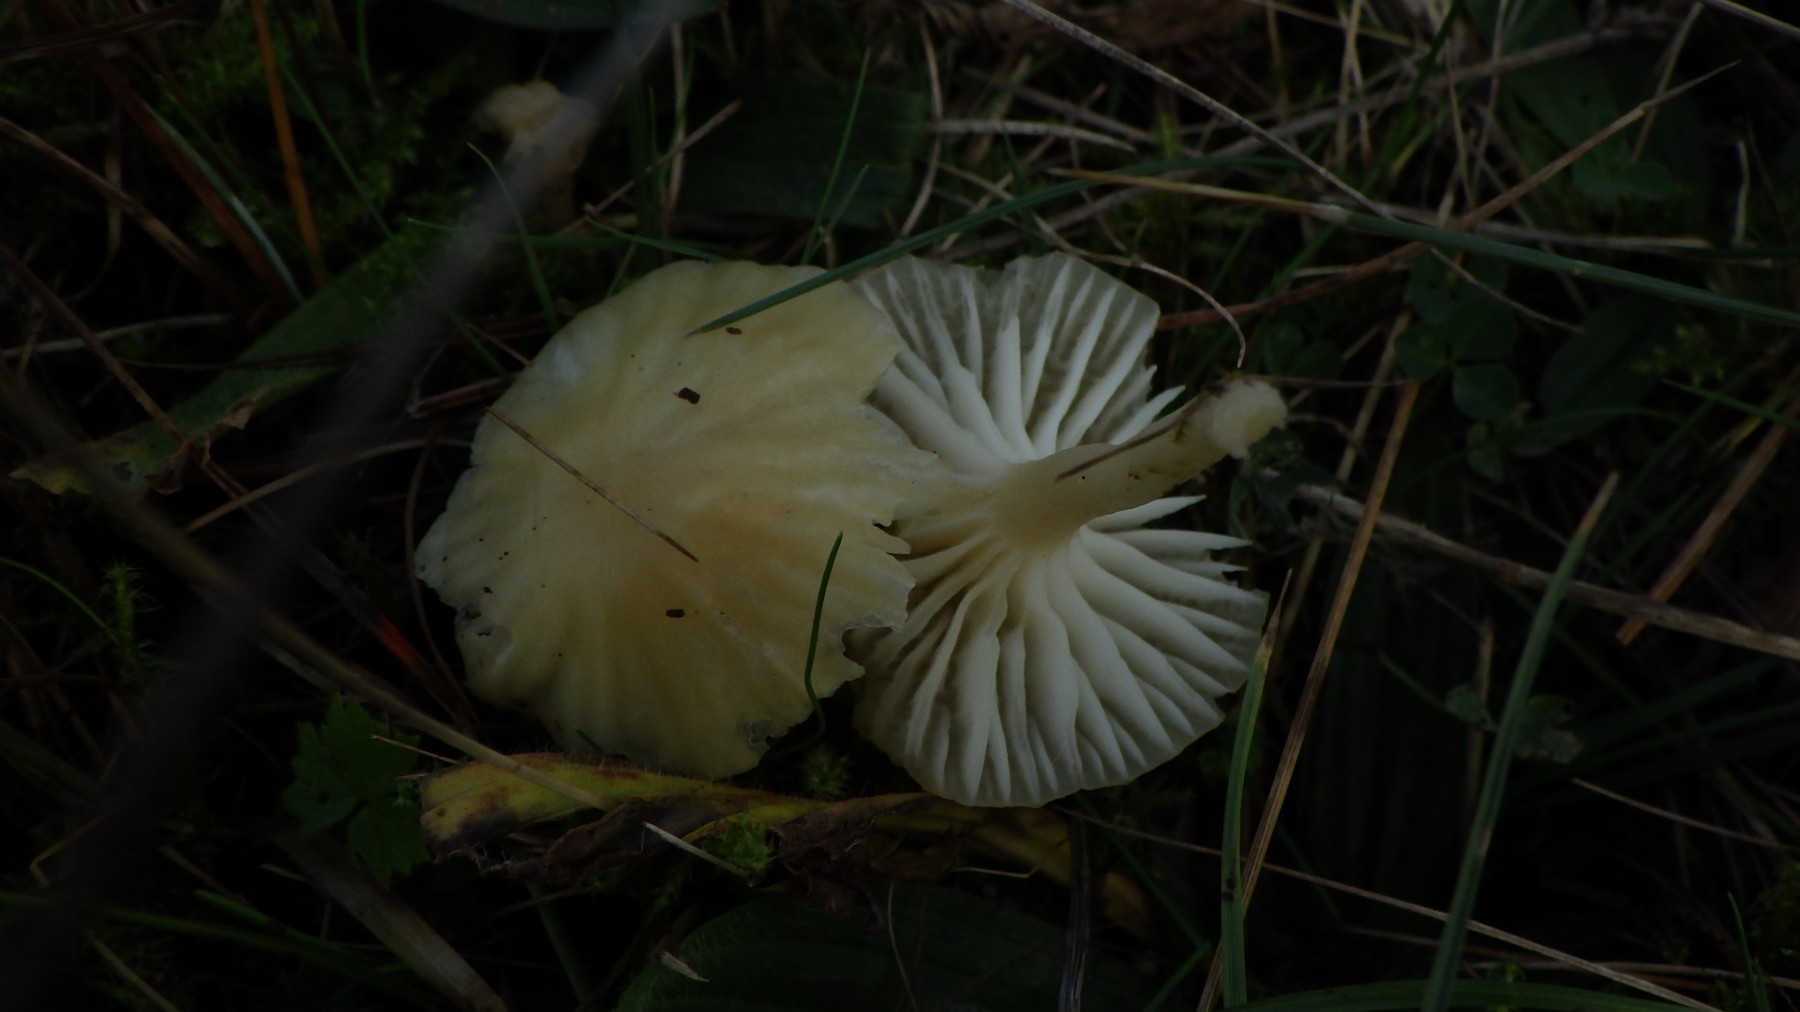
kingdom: Fungi
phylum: Basidiomycota
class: Agaricomycetes
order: Agaricales
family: Hygrophoraceae
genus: Cuphophyllus
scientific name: Cuphophyllus russocoriaceus
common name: ruslæder-vokshat
